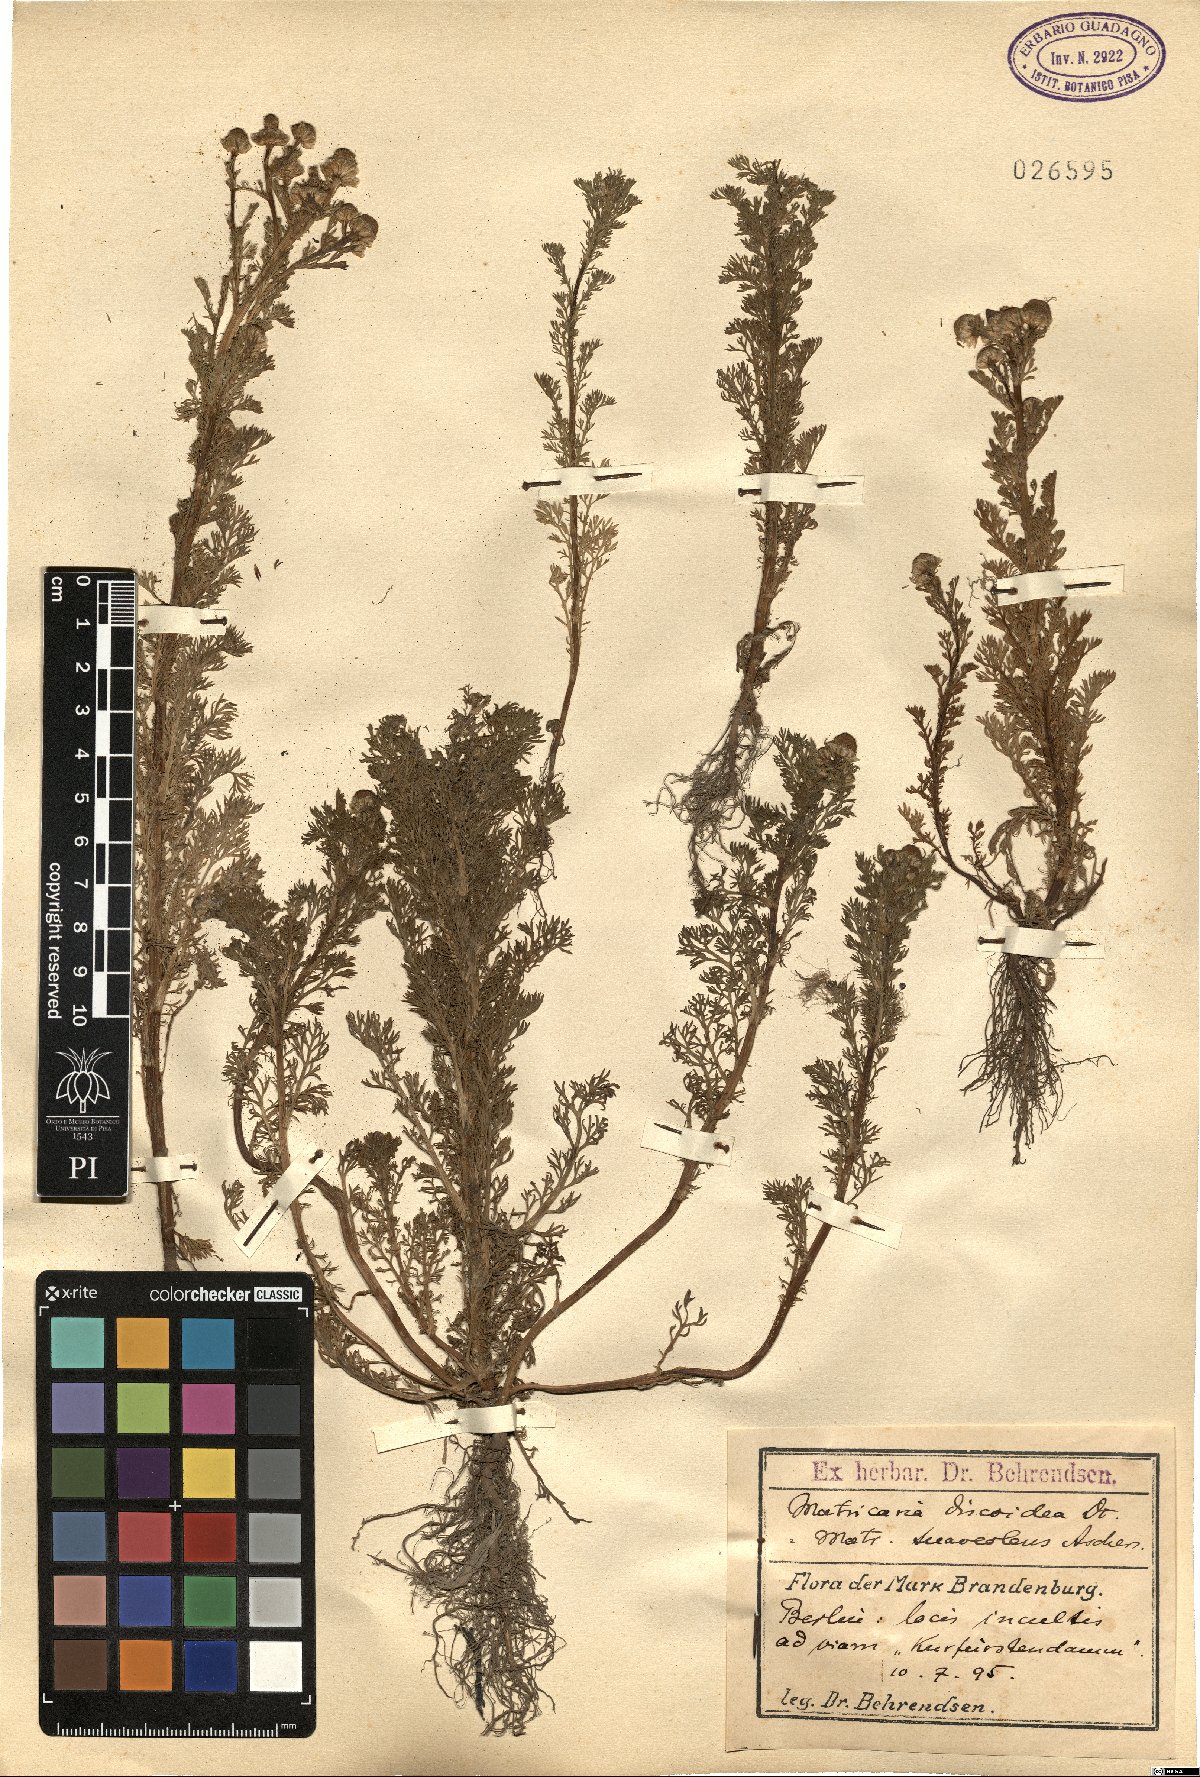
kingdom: Plantae
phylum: Tracheophyta
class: Magnoliopsida
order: Asterales
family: Asteraceae
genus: Matricaria
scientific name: Matricaria discoidea
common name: Disc mayweed
